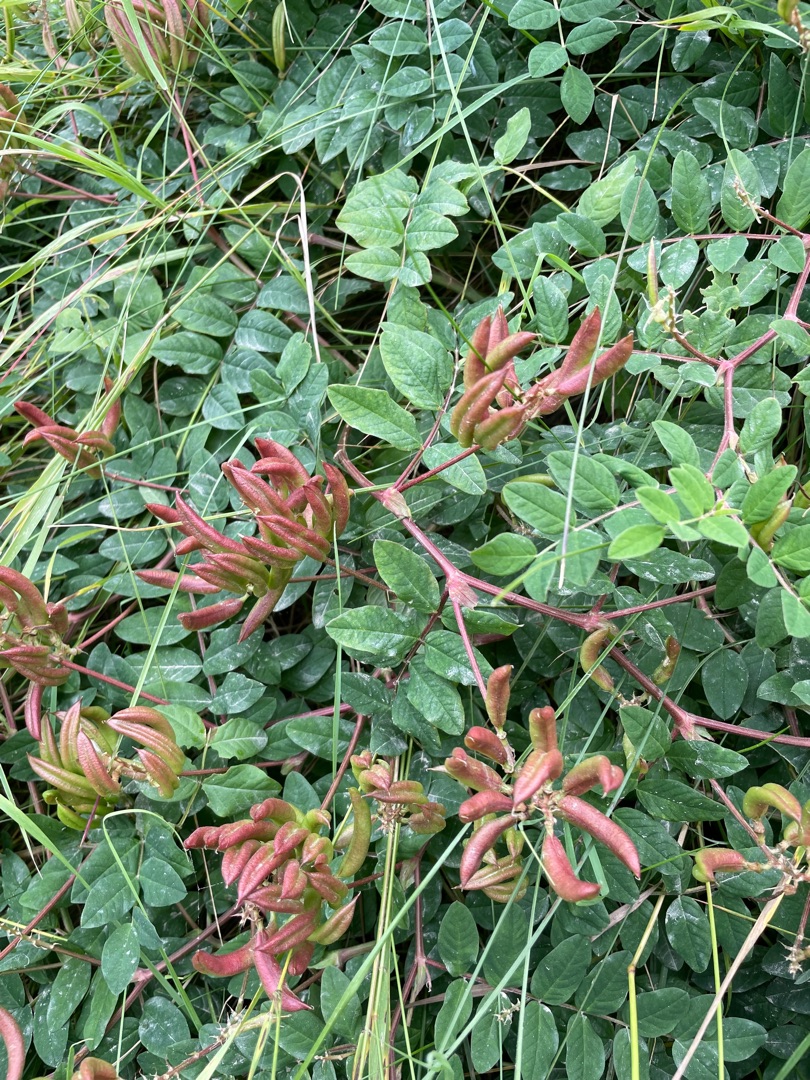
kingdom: Plantae
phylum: Tracheophyta
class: Magnoliopsida
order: Fabales
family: Fabaceae
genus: Astragalus
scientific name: Astragalus glycyphyllos
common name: Sød astragel
